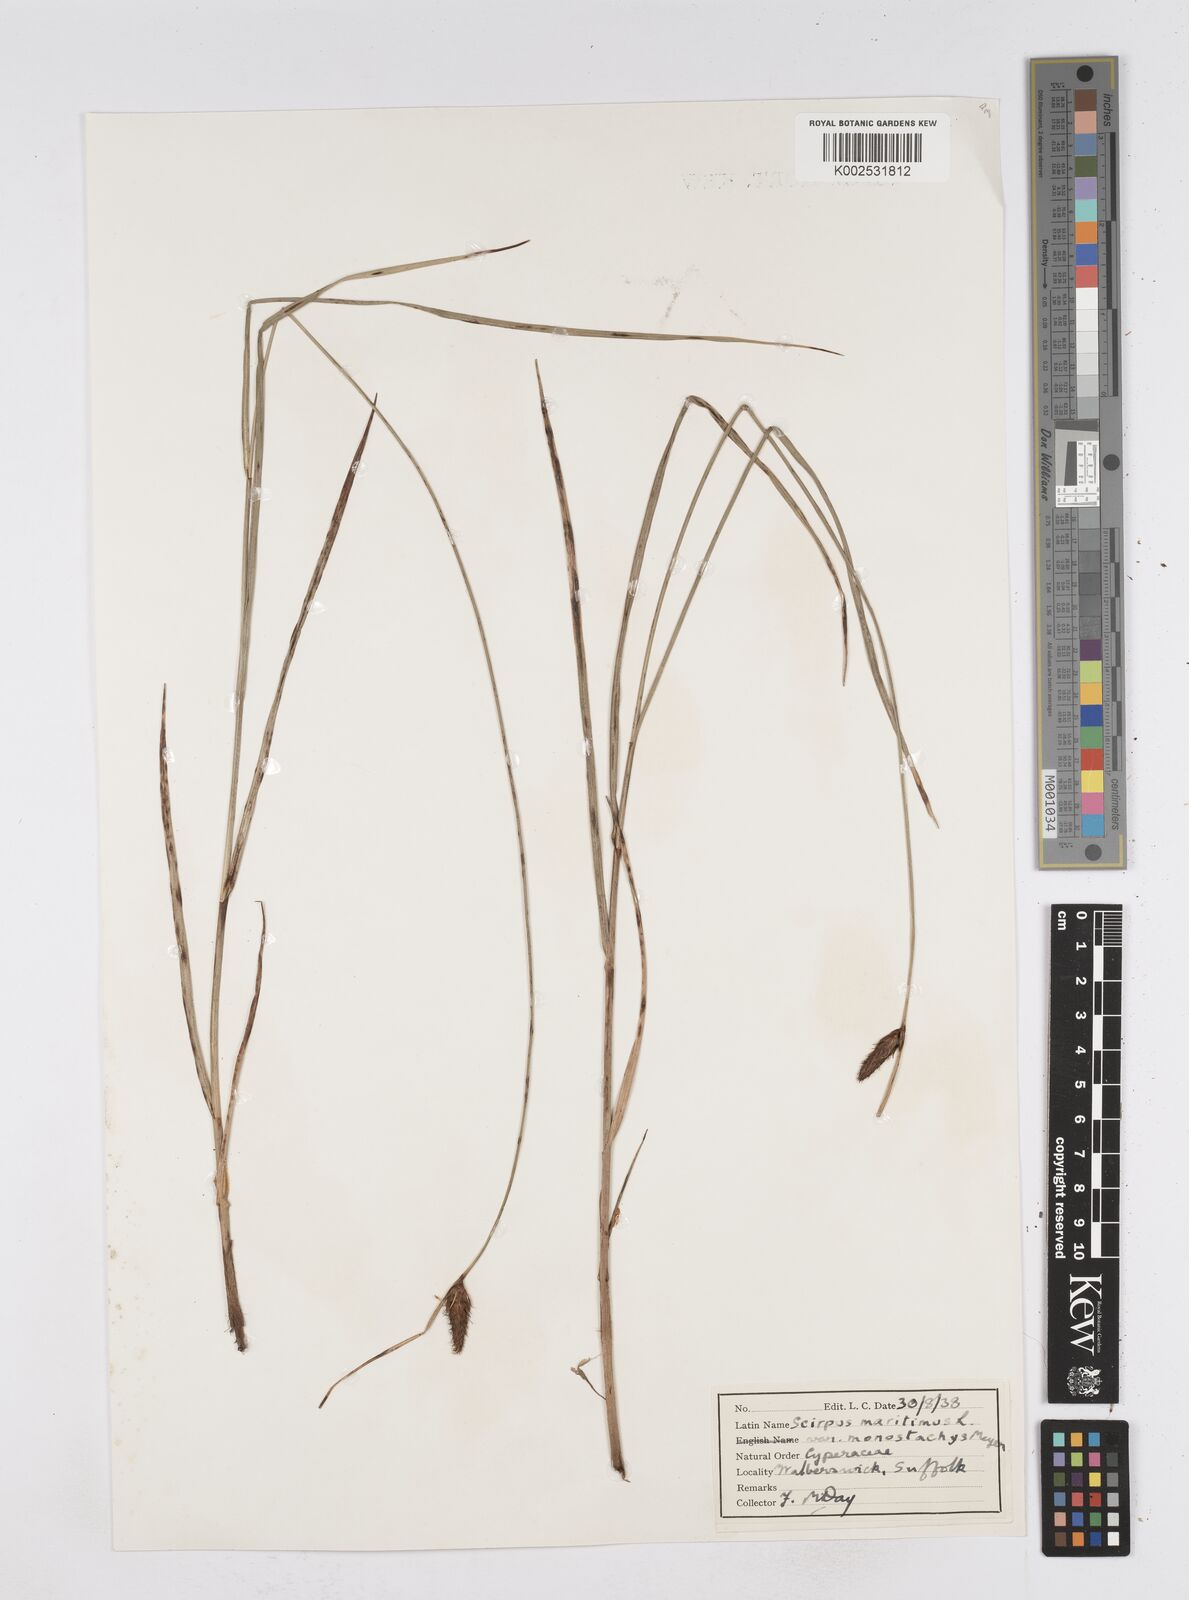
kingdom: Plantae
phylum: Tracheophyta
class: Liliopsida
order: Poales
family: Cyperaceae
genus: Bolboschoenus
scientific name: Bolboschoenus maritimus
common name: Sea club-rush
